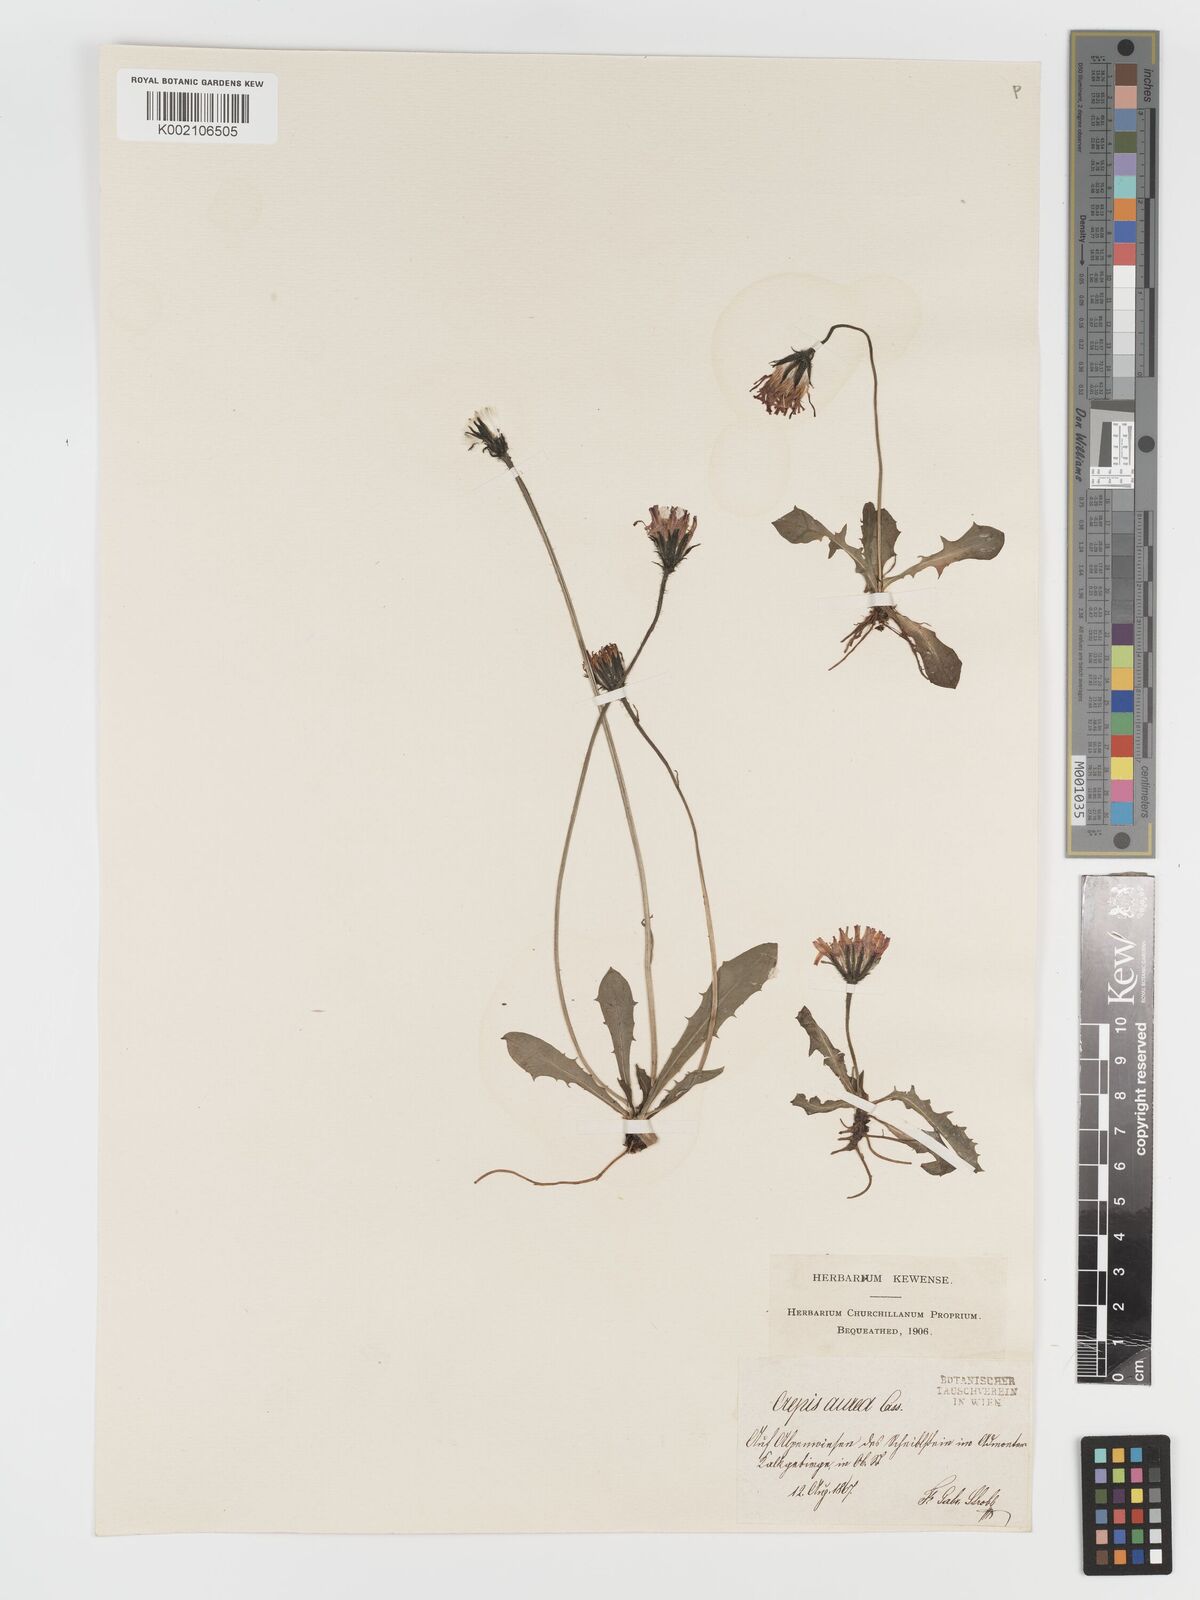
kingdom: Plantae
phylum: Tracheophyta
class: Magnoliopsida
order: Asterales
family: Asteraceae
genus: Crepis
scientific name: Crepis aurea
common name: Golden hawk's-beard
